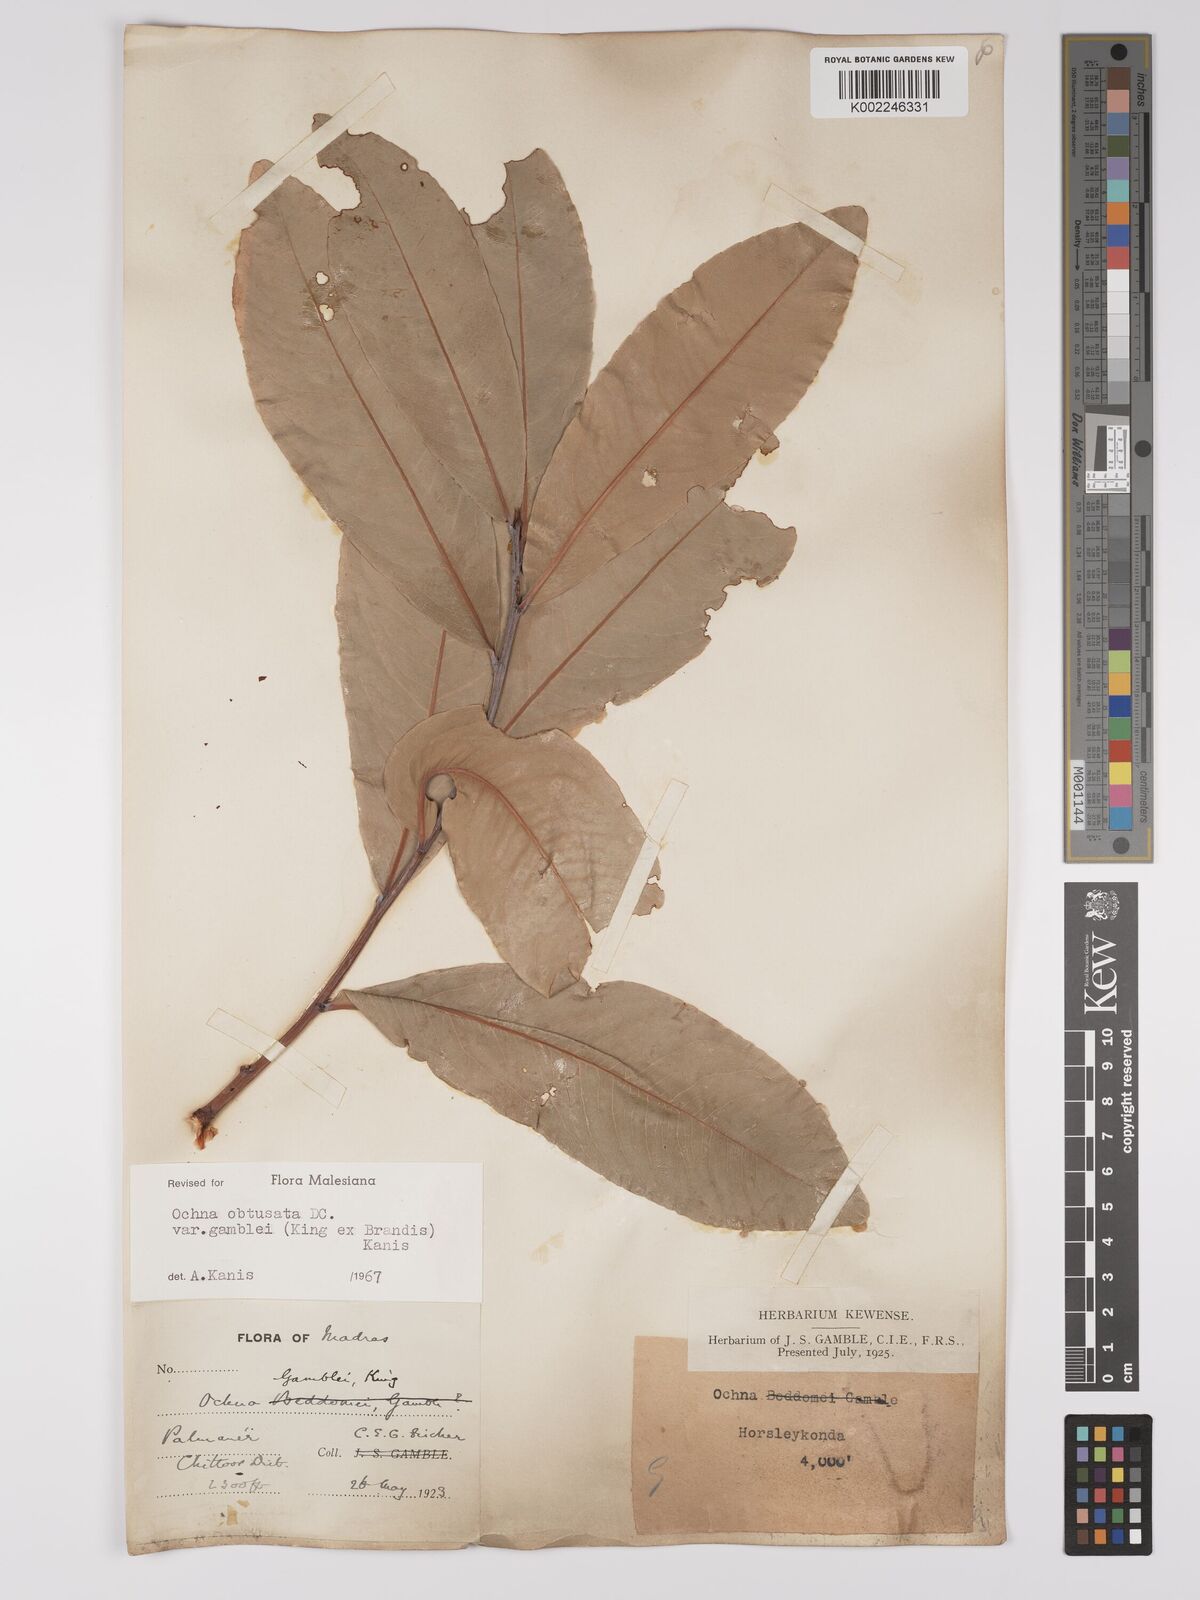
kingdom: Plantae
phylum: Tracheophyta
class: Magnoliopsida
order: Malpighiales
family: Ochnaceae
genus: Ochna
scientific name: Ochna gamblei
